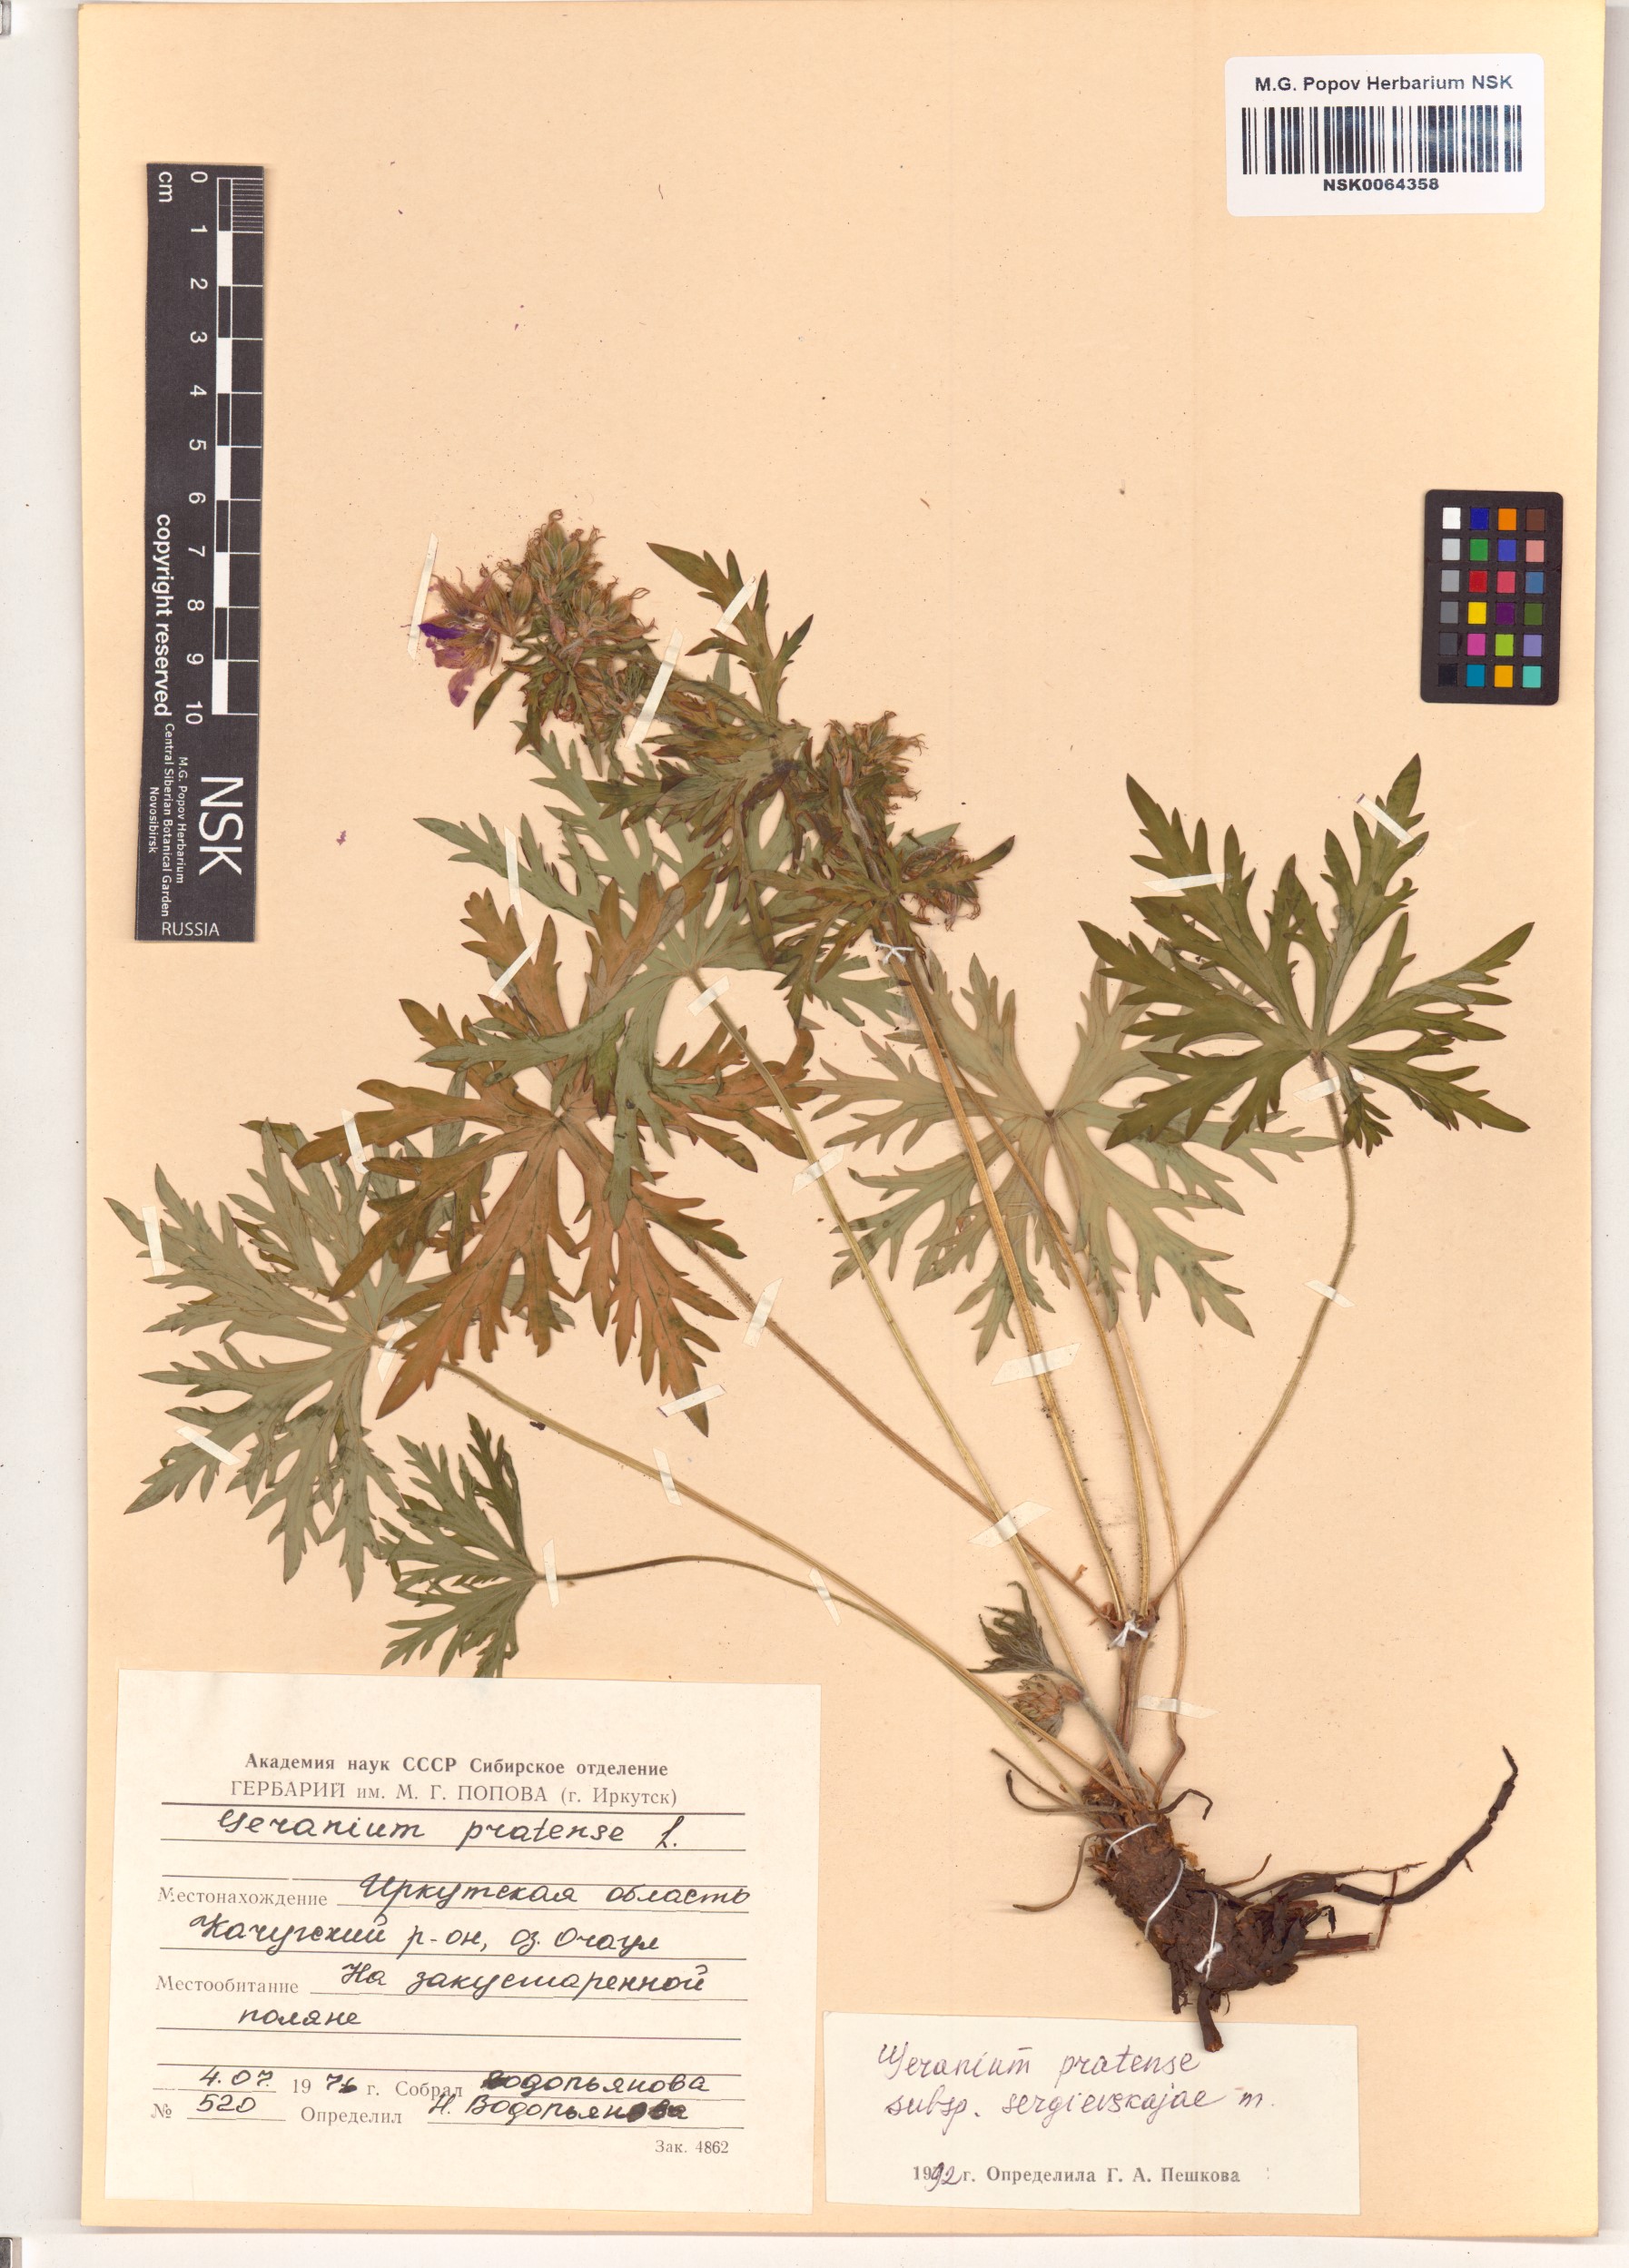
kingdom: Plantae
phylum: Tracheophyta
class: Magnoliopsida
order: Geraniales
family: Geraniaceae
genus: Geranium
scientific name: Geranium pratense
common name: Meadow crane's-bill
